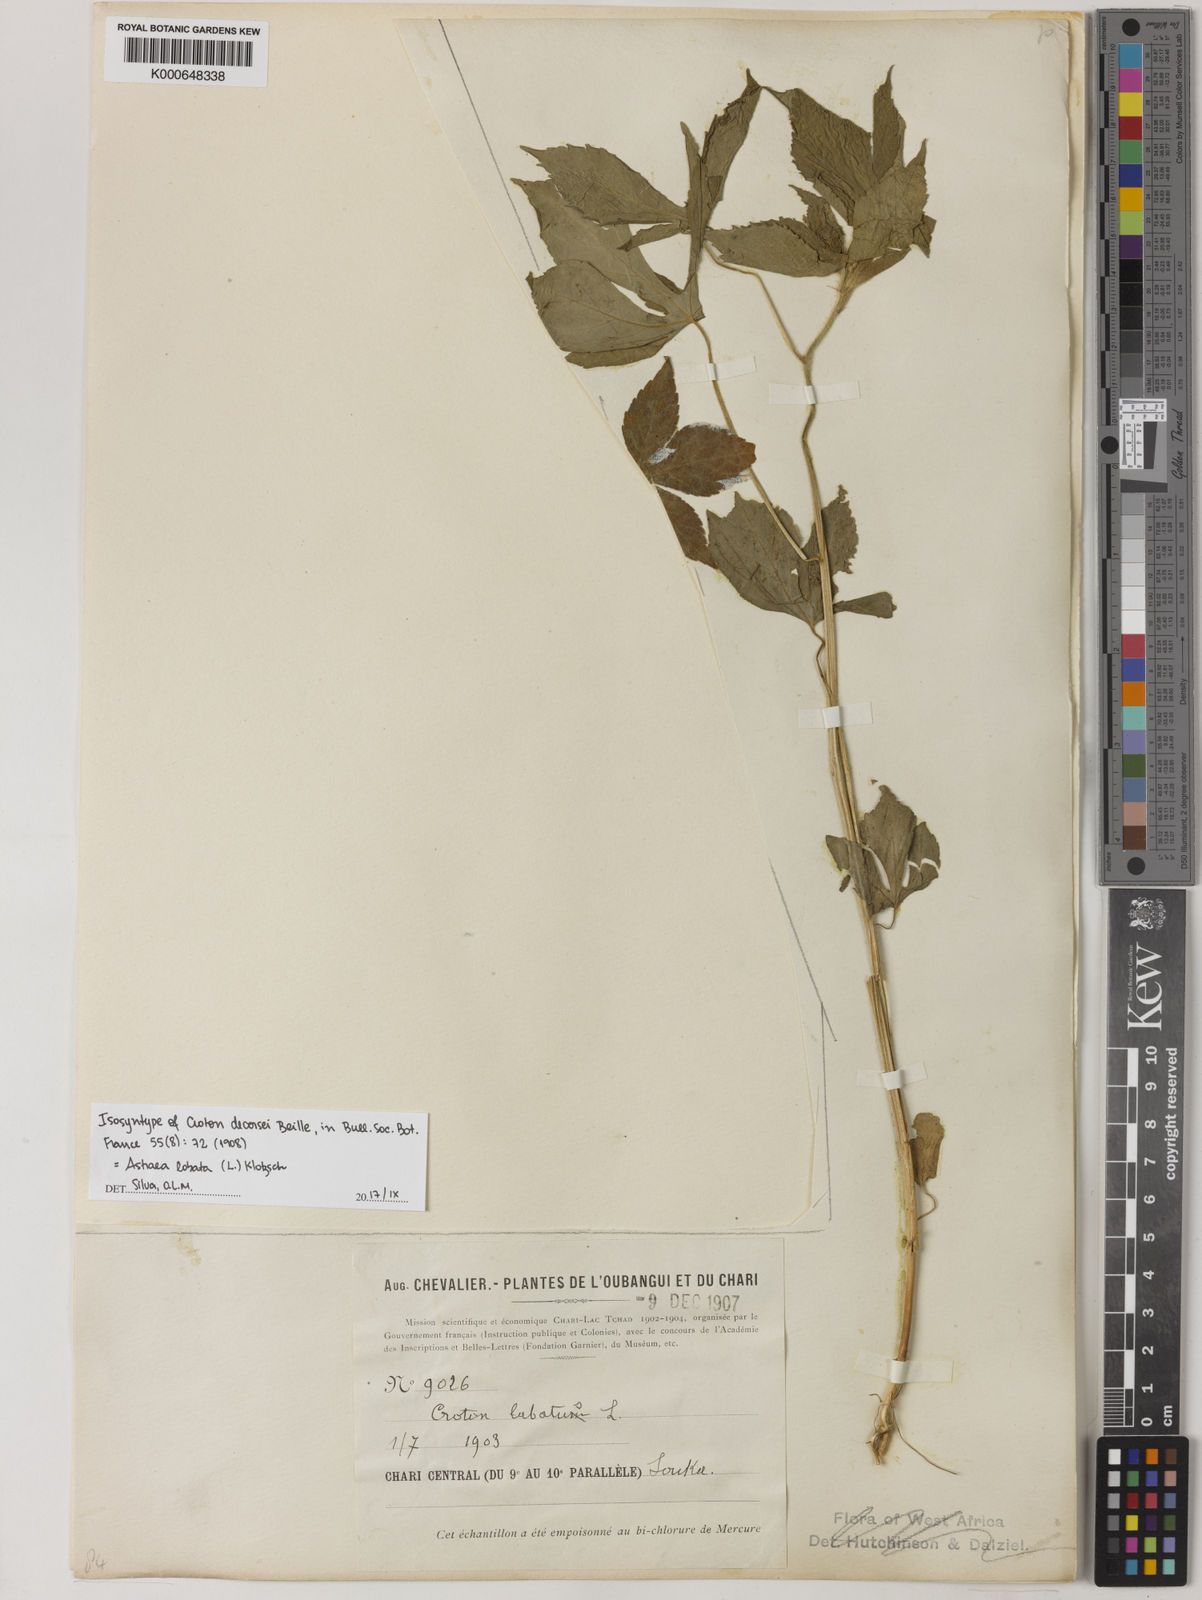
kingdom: Plantae
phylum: Tracheophyta
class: Magnoliopsida
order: Malpighiales
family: Euphorbiaceae
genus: Astraea
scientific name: Astraea lobata
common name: Lobed croton
